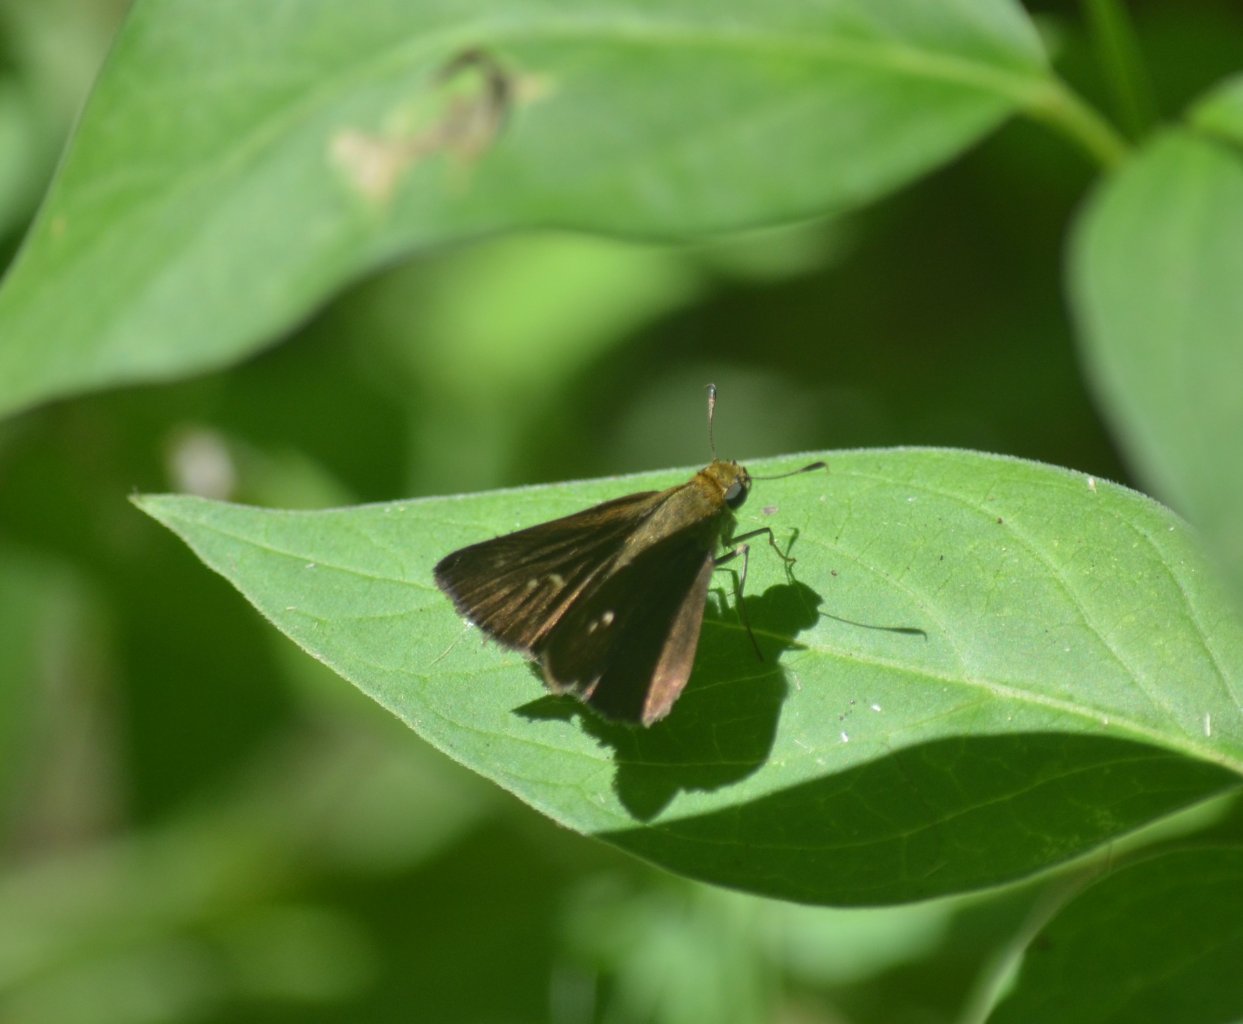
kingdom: Animalia
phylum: Arthropoda
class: Insecta
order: Lepidoptera
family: Hesperiidae
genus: Euphyes
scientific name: Euphyes vestris
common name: Dun Skipper
